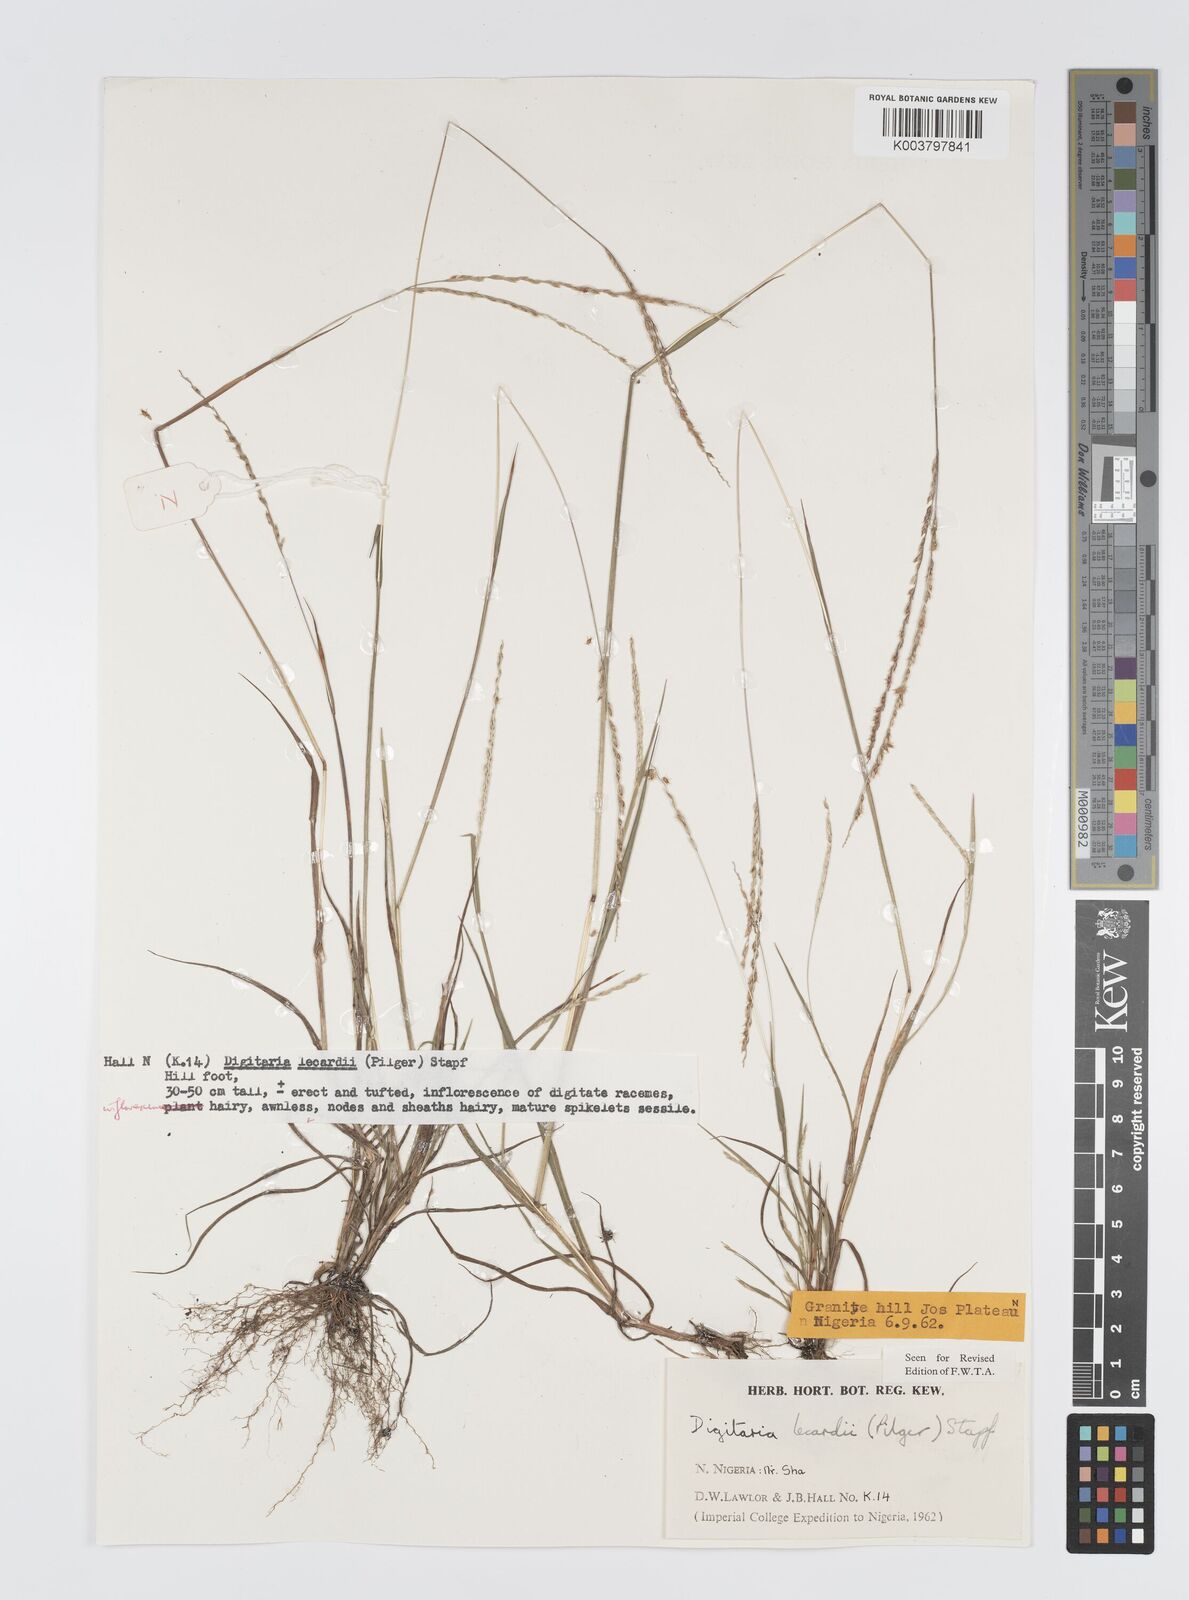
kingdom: Plantae
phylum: Tracheophyta
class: Liliopsida
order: Poales
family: Poaceae
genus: Digitaria
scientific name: Digitaria argillacea
